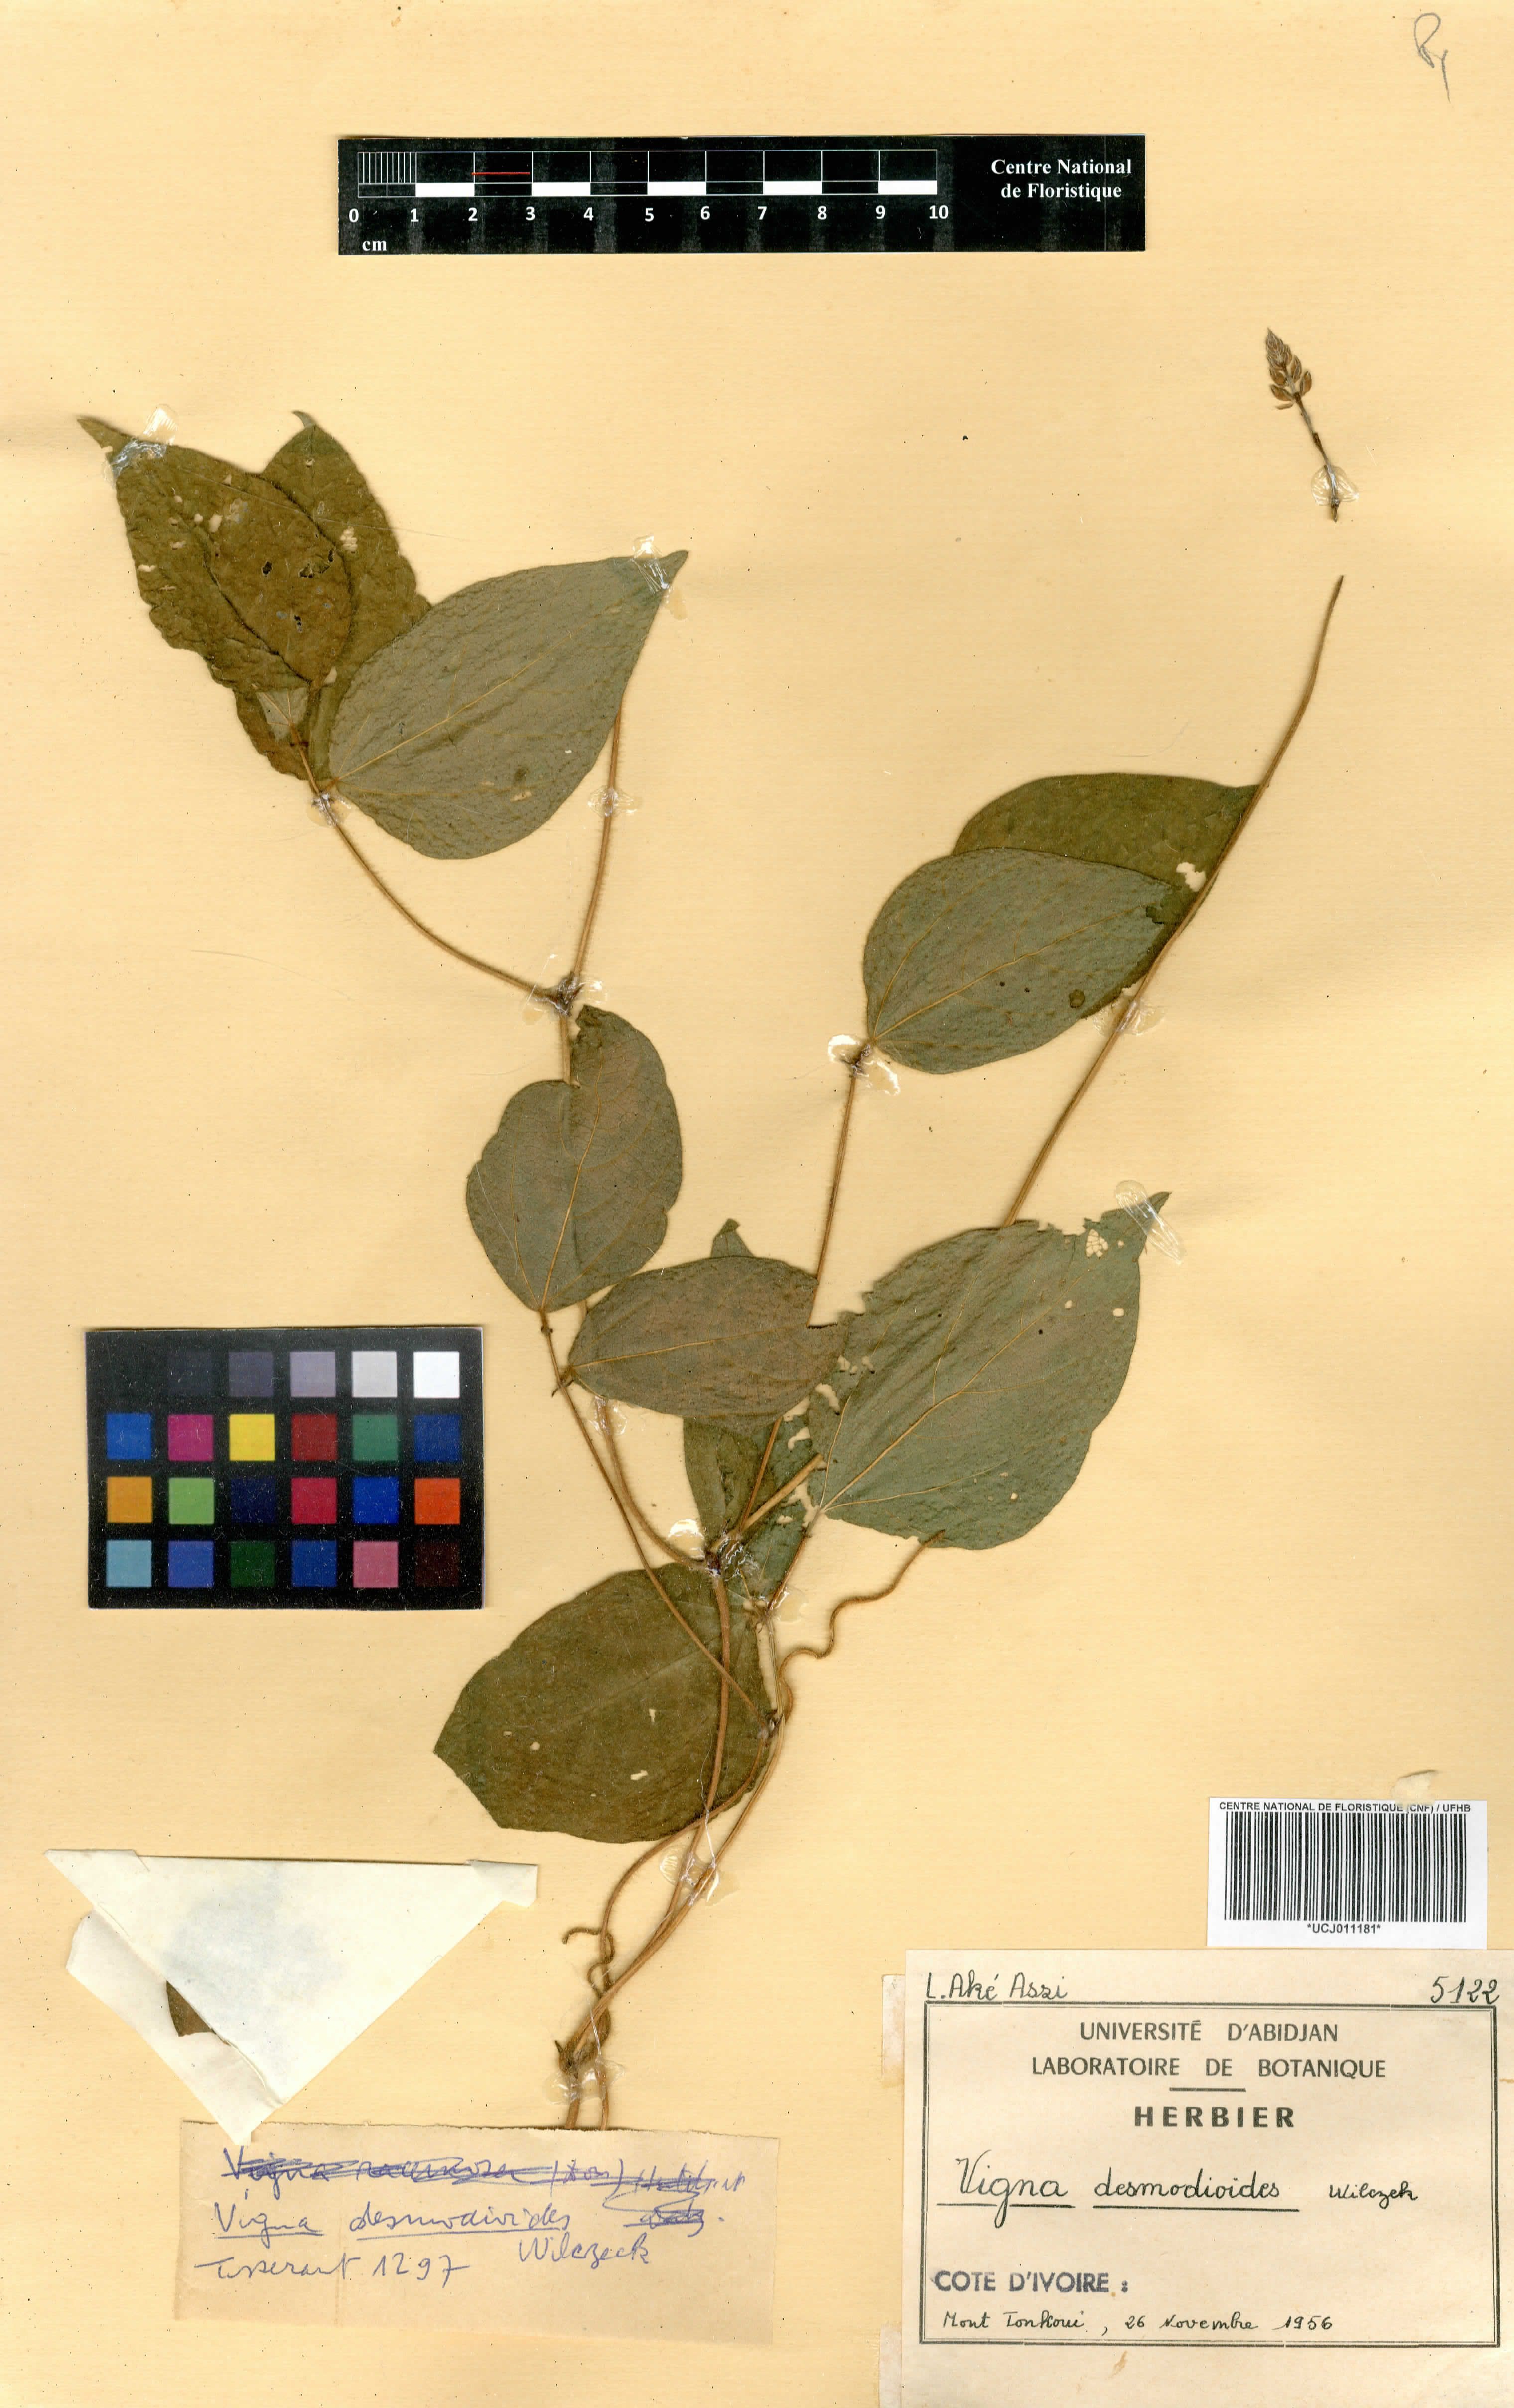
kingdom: Plantae
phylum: Tracheophyta
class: Magnoliopsida
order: Fabales
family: Fabaceae
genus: Vigna
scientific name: Vigna gracilis
